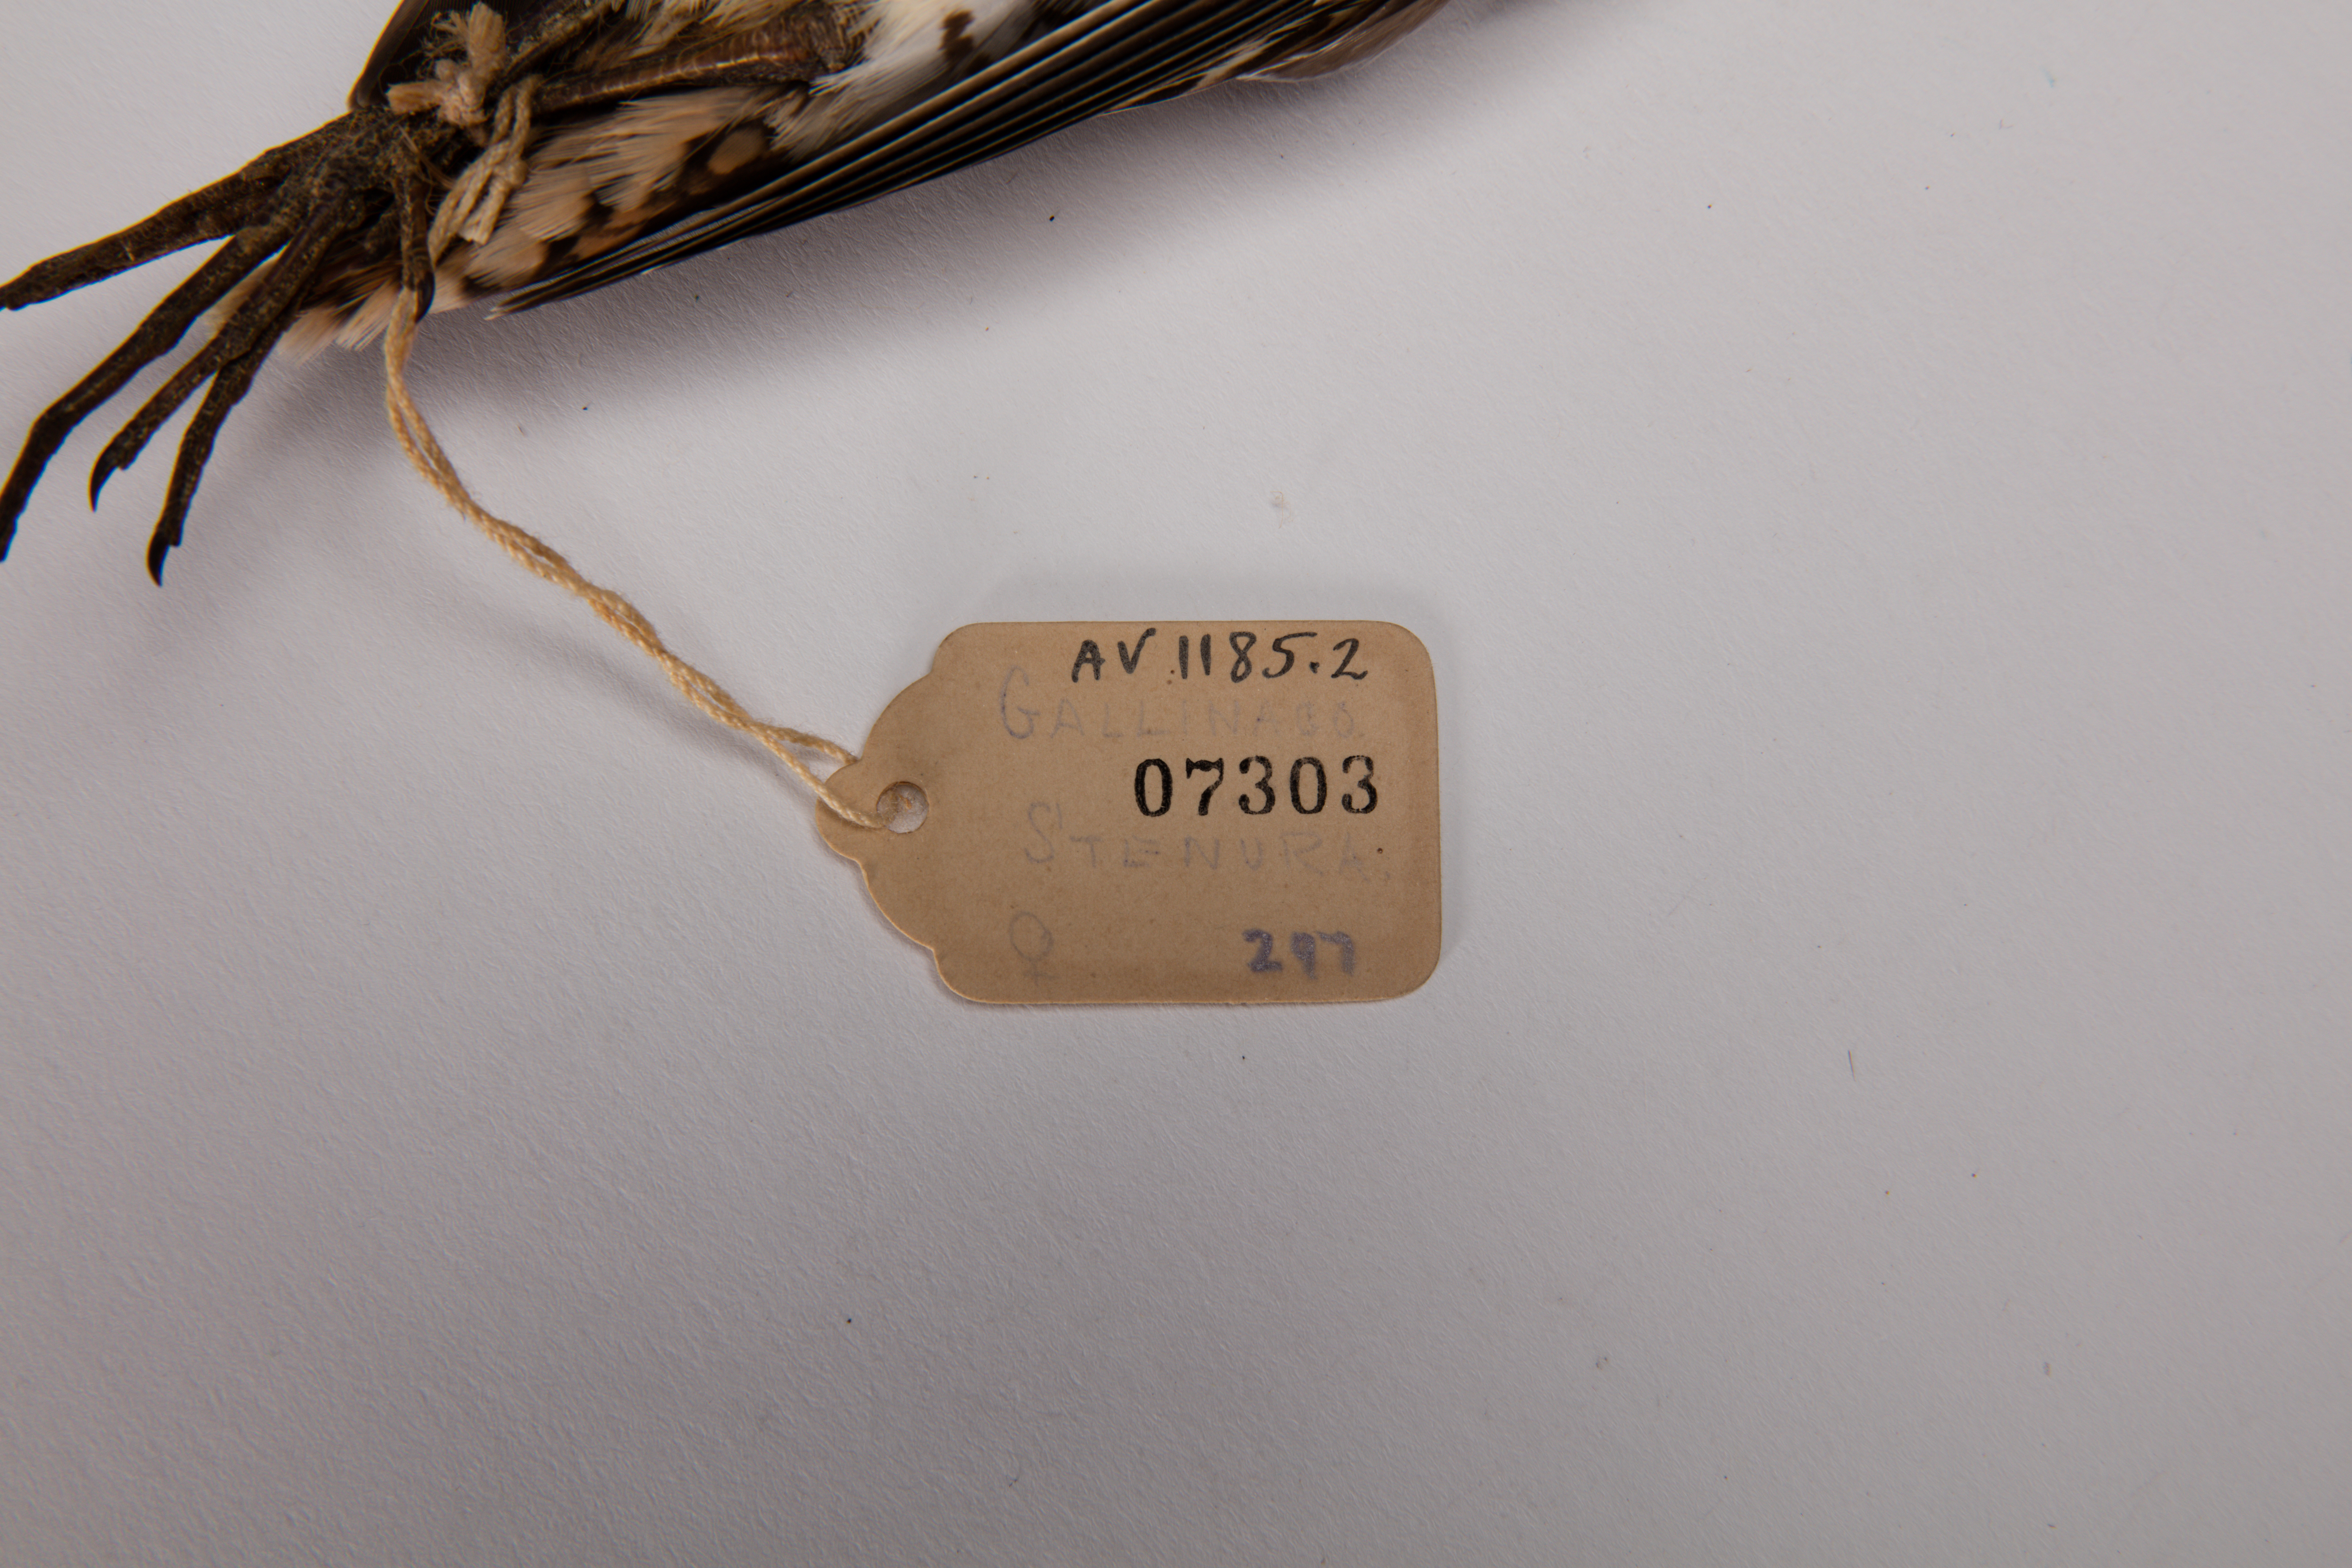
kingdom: Animalia
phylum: Chordata
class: Aves
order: Charadriiformes
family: Scolopacidae
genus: Gallinago
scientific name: Gallinago stenura
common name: Pin-tailed snipe
